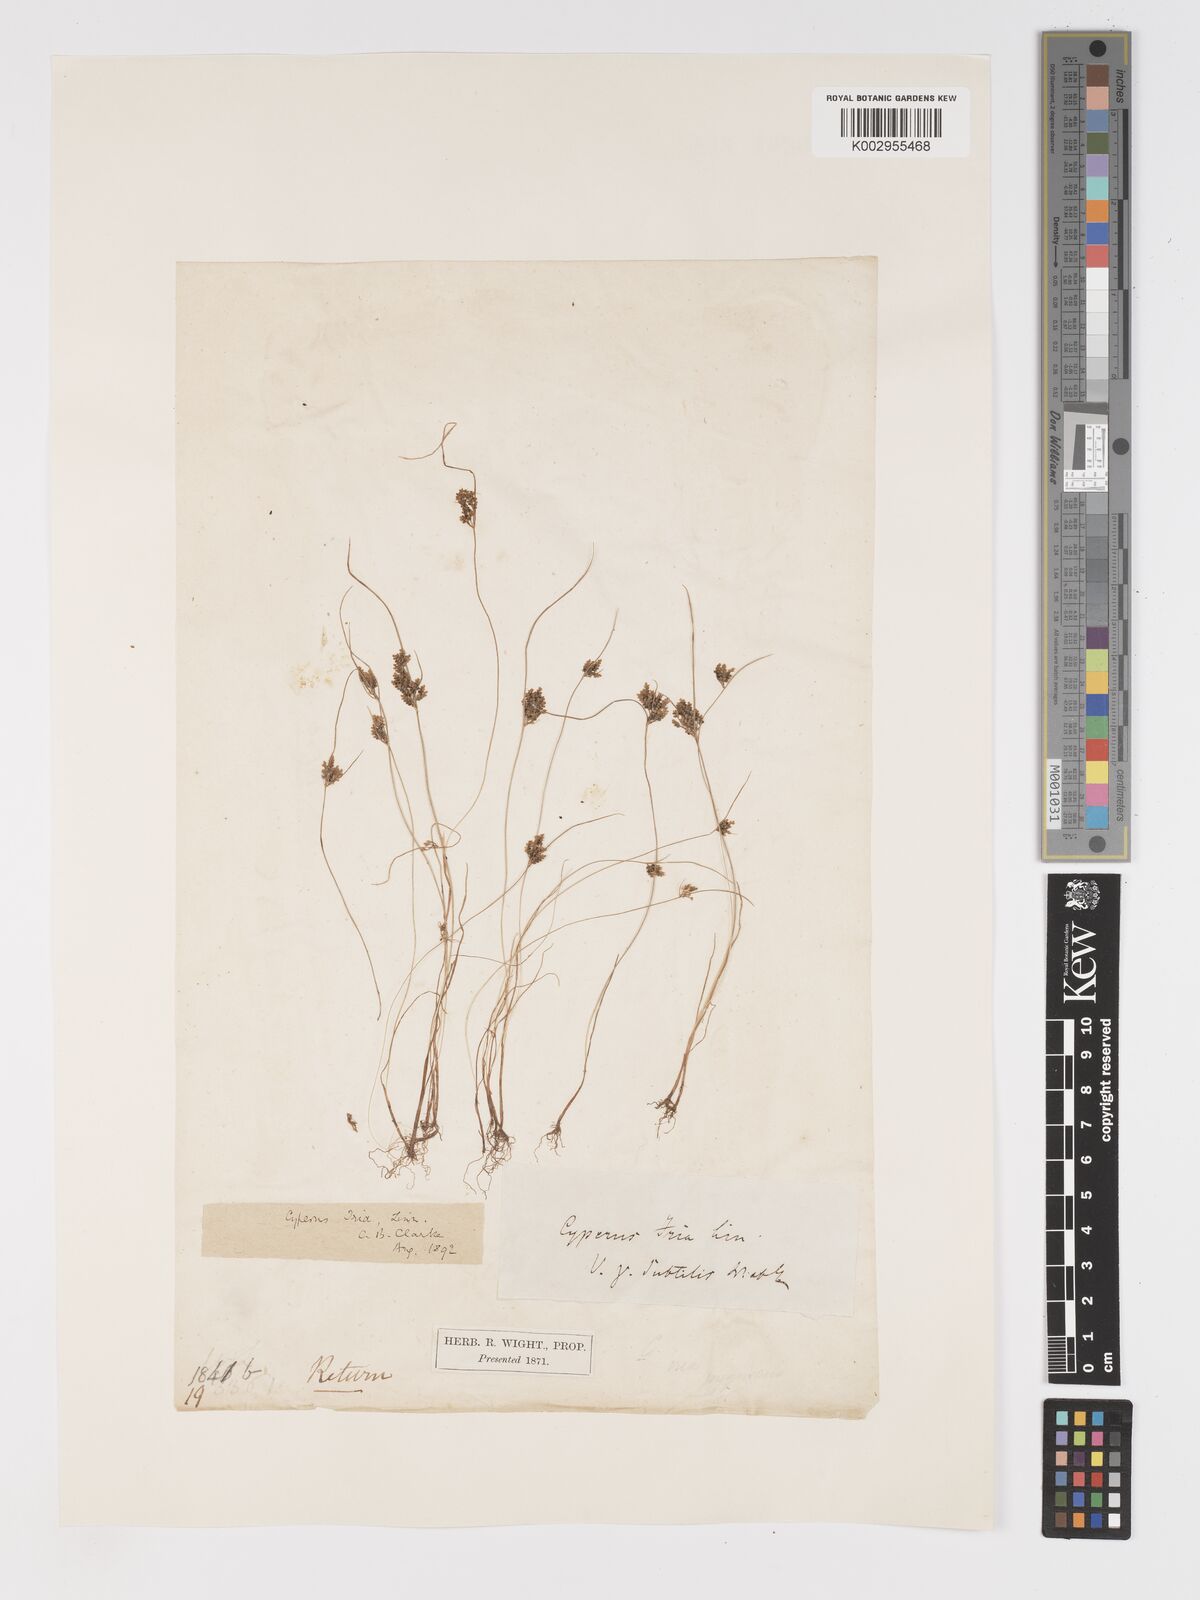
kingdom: Plantae
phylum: Tracheophyta
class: Liliopsida
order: Poales
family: Cyperaceae
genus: Cyperus
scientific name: Cyperus iria
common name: Ricefield flatsedge
